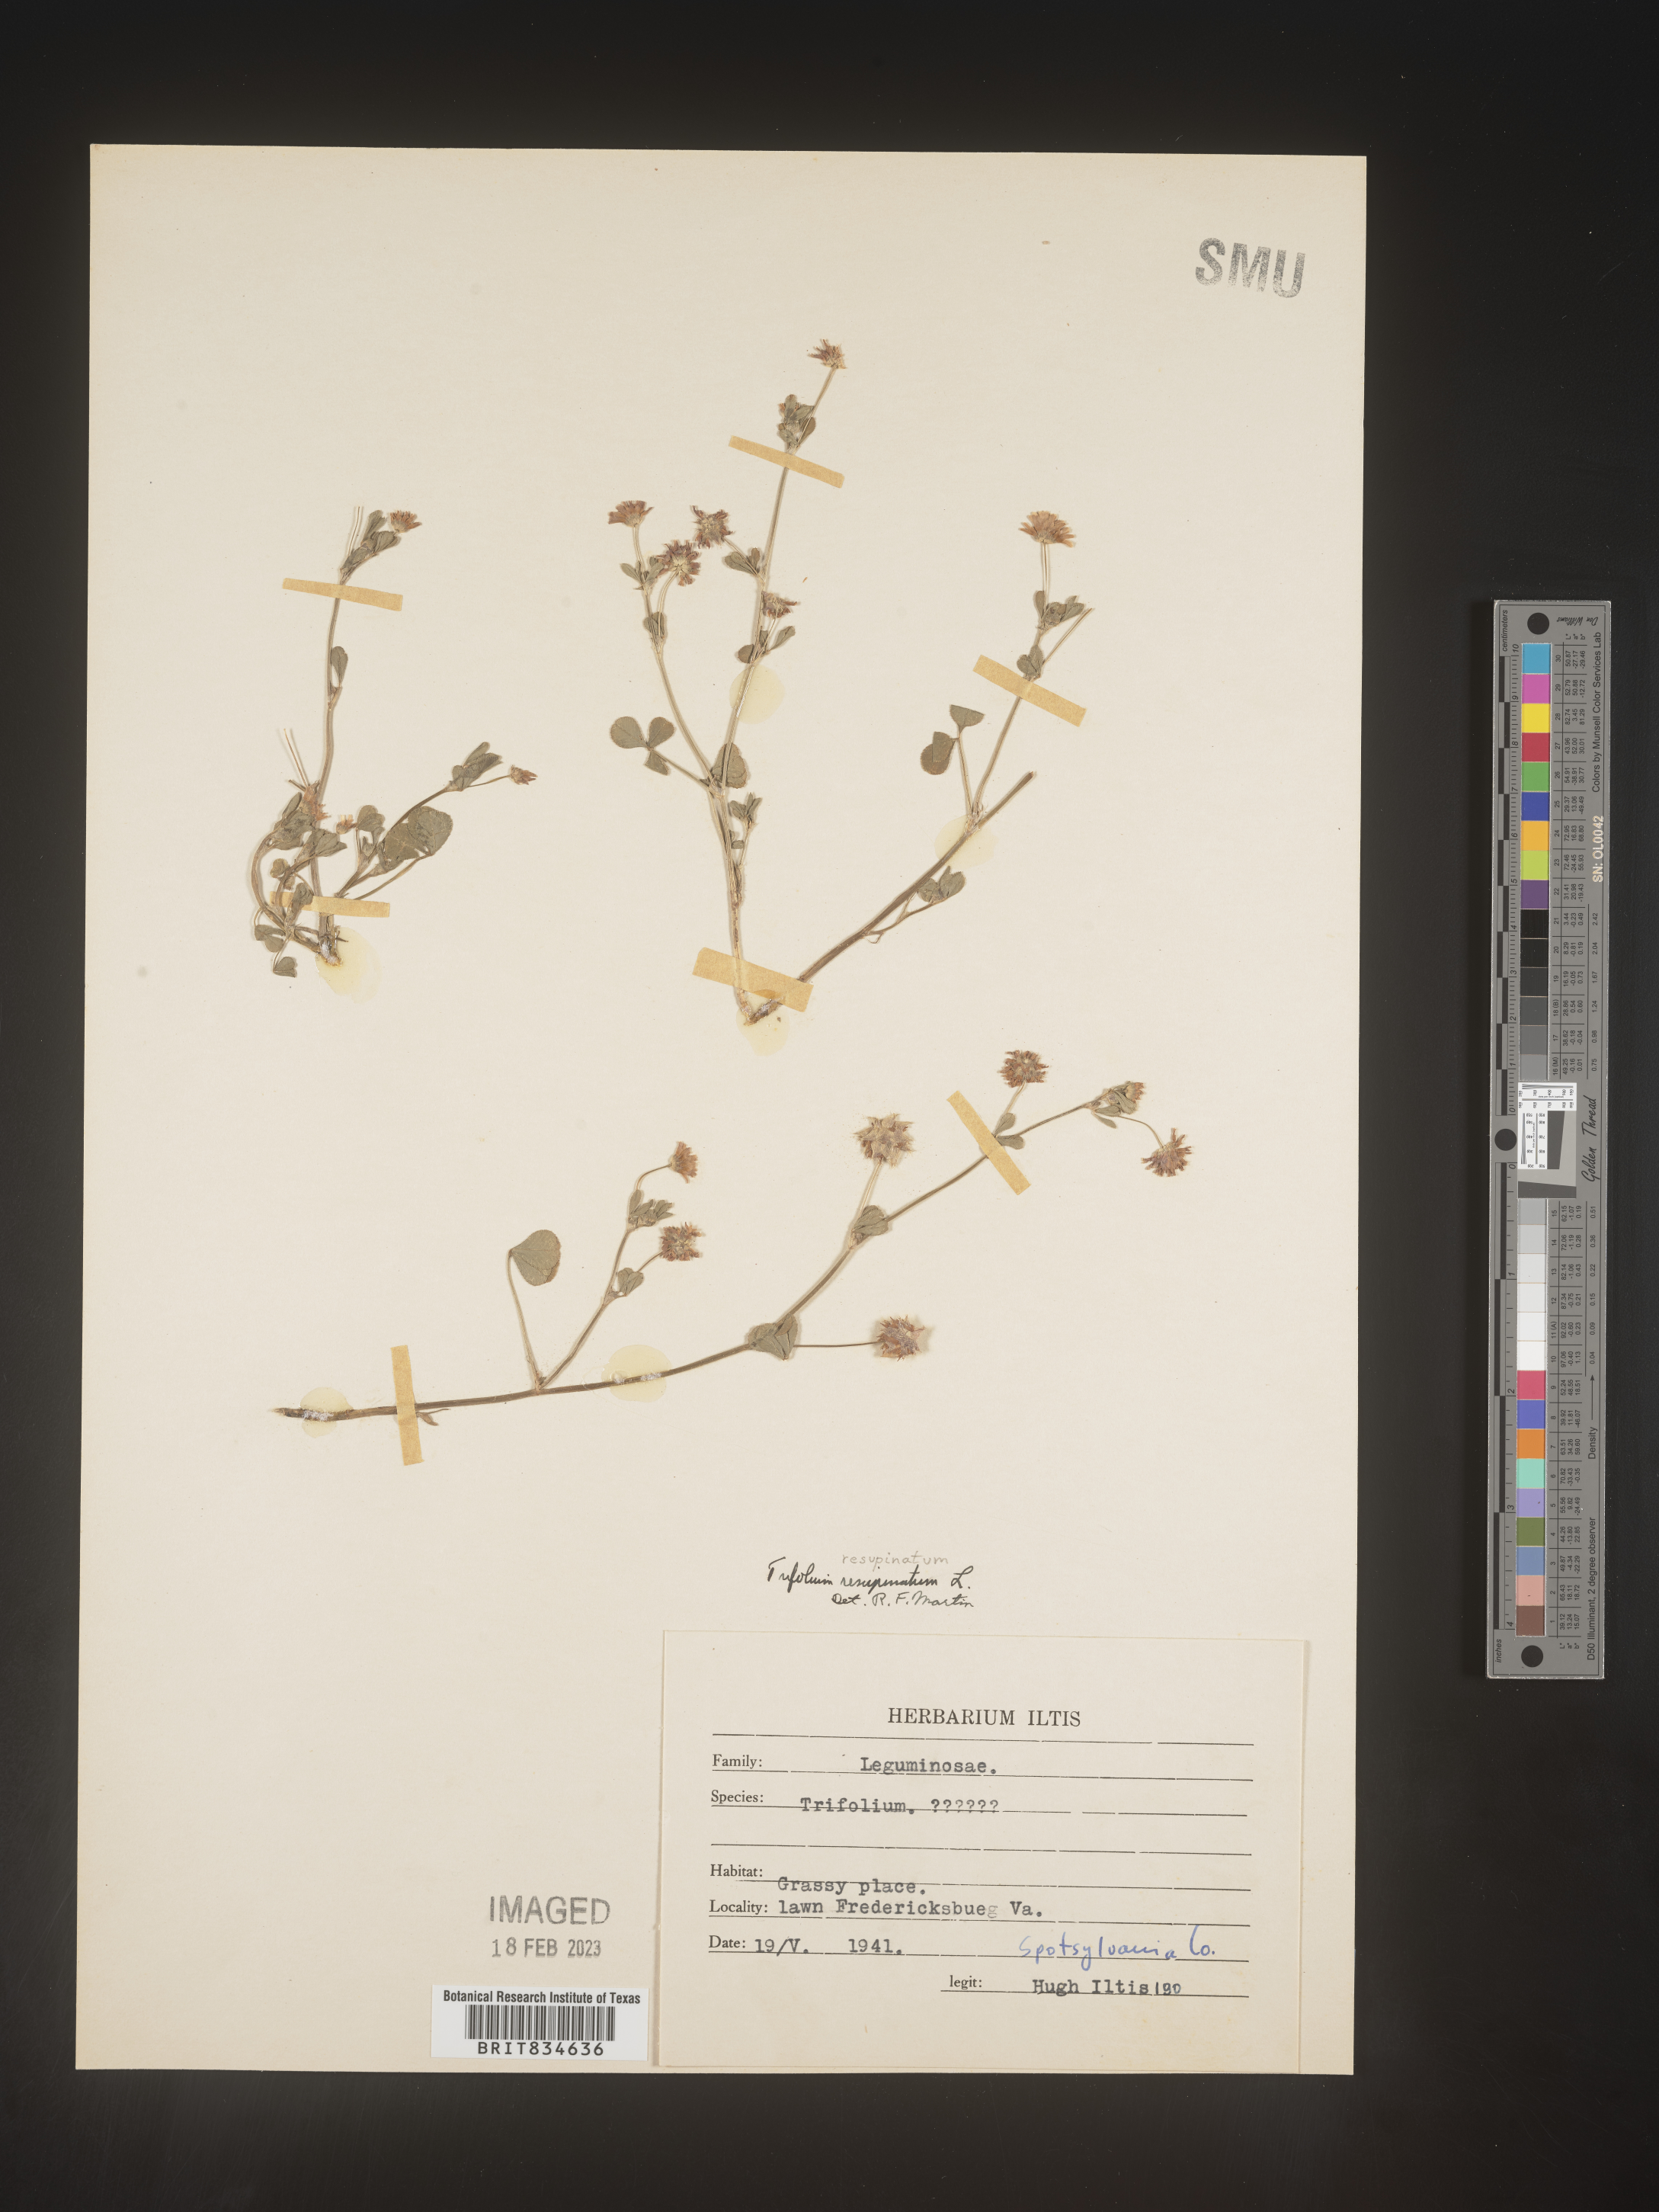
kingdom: Plantae
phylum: Tracheophyta
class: Magnoliopsida
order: Fabales
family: Fabaceae
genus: Trifolium
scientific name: Trifolium resupinatum
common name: Reversed clover
